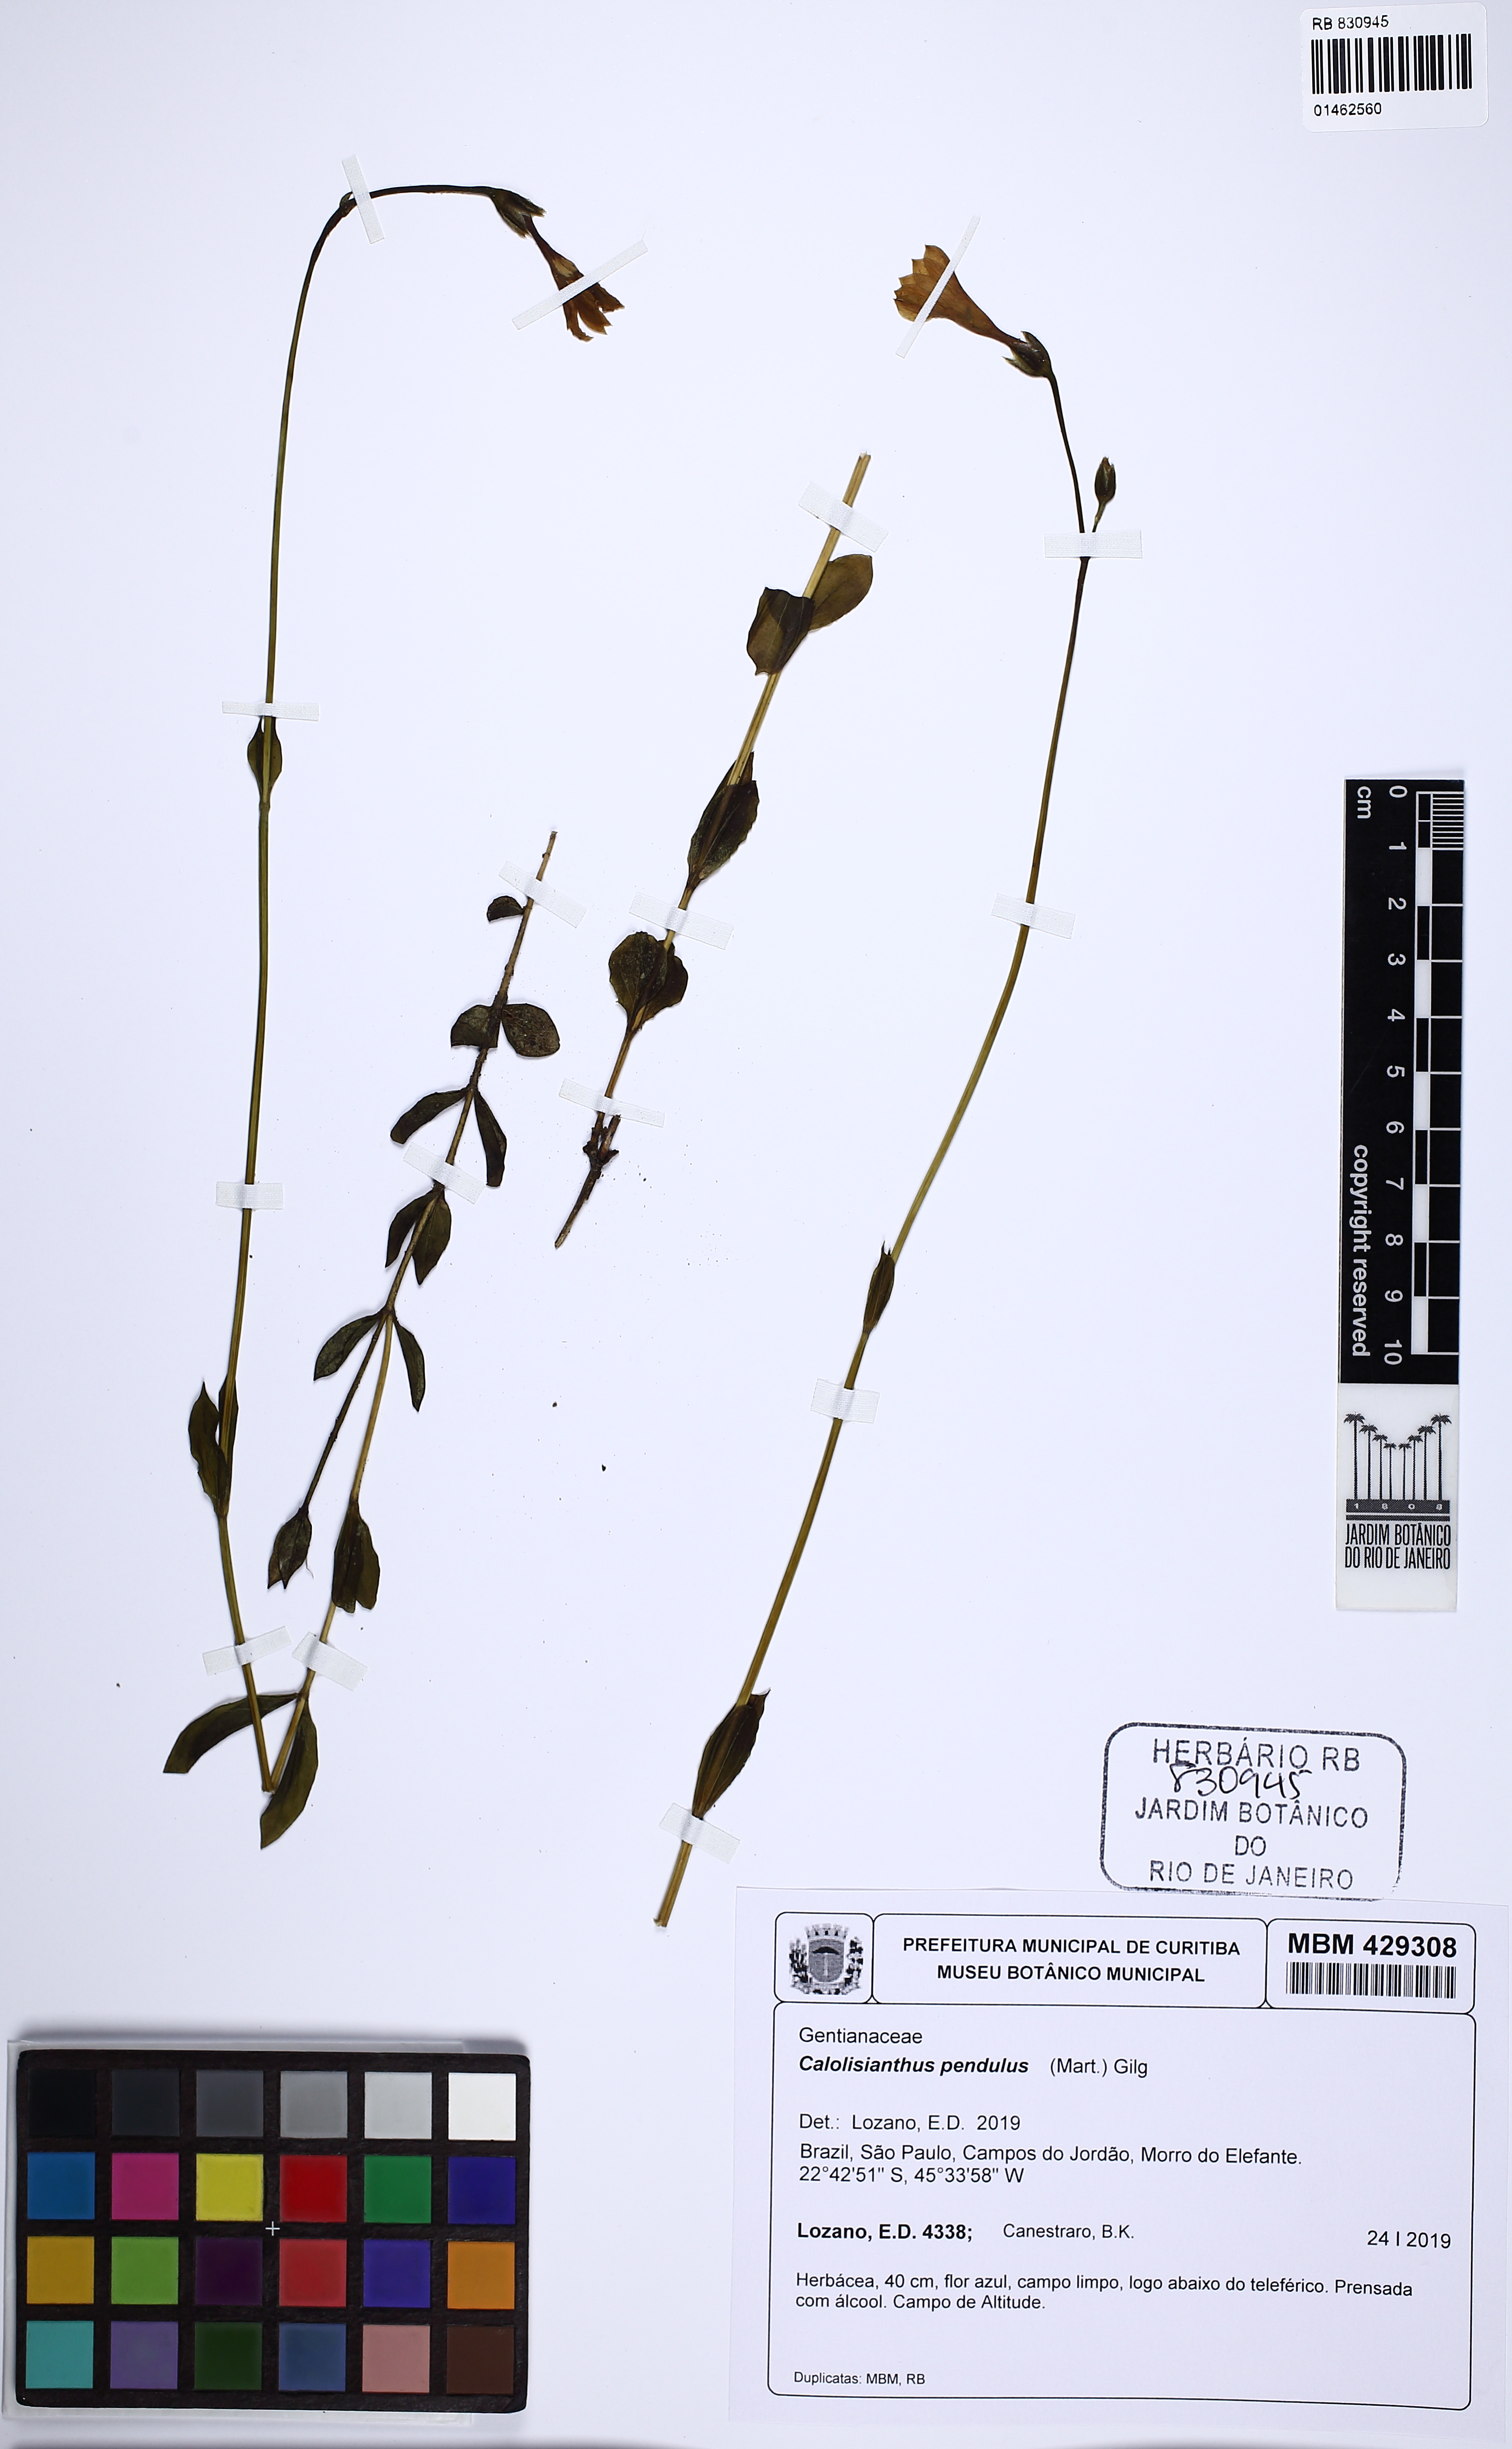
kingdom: Plantae
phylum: Tracheophyta
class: Magnoliopsida
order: Gentianales
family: Gentianaceae
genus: Calolisianthus
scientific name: Calolisianthus pendulus
